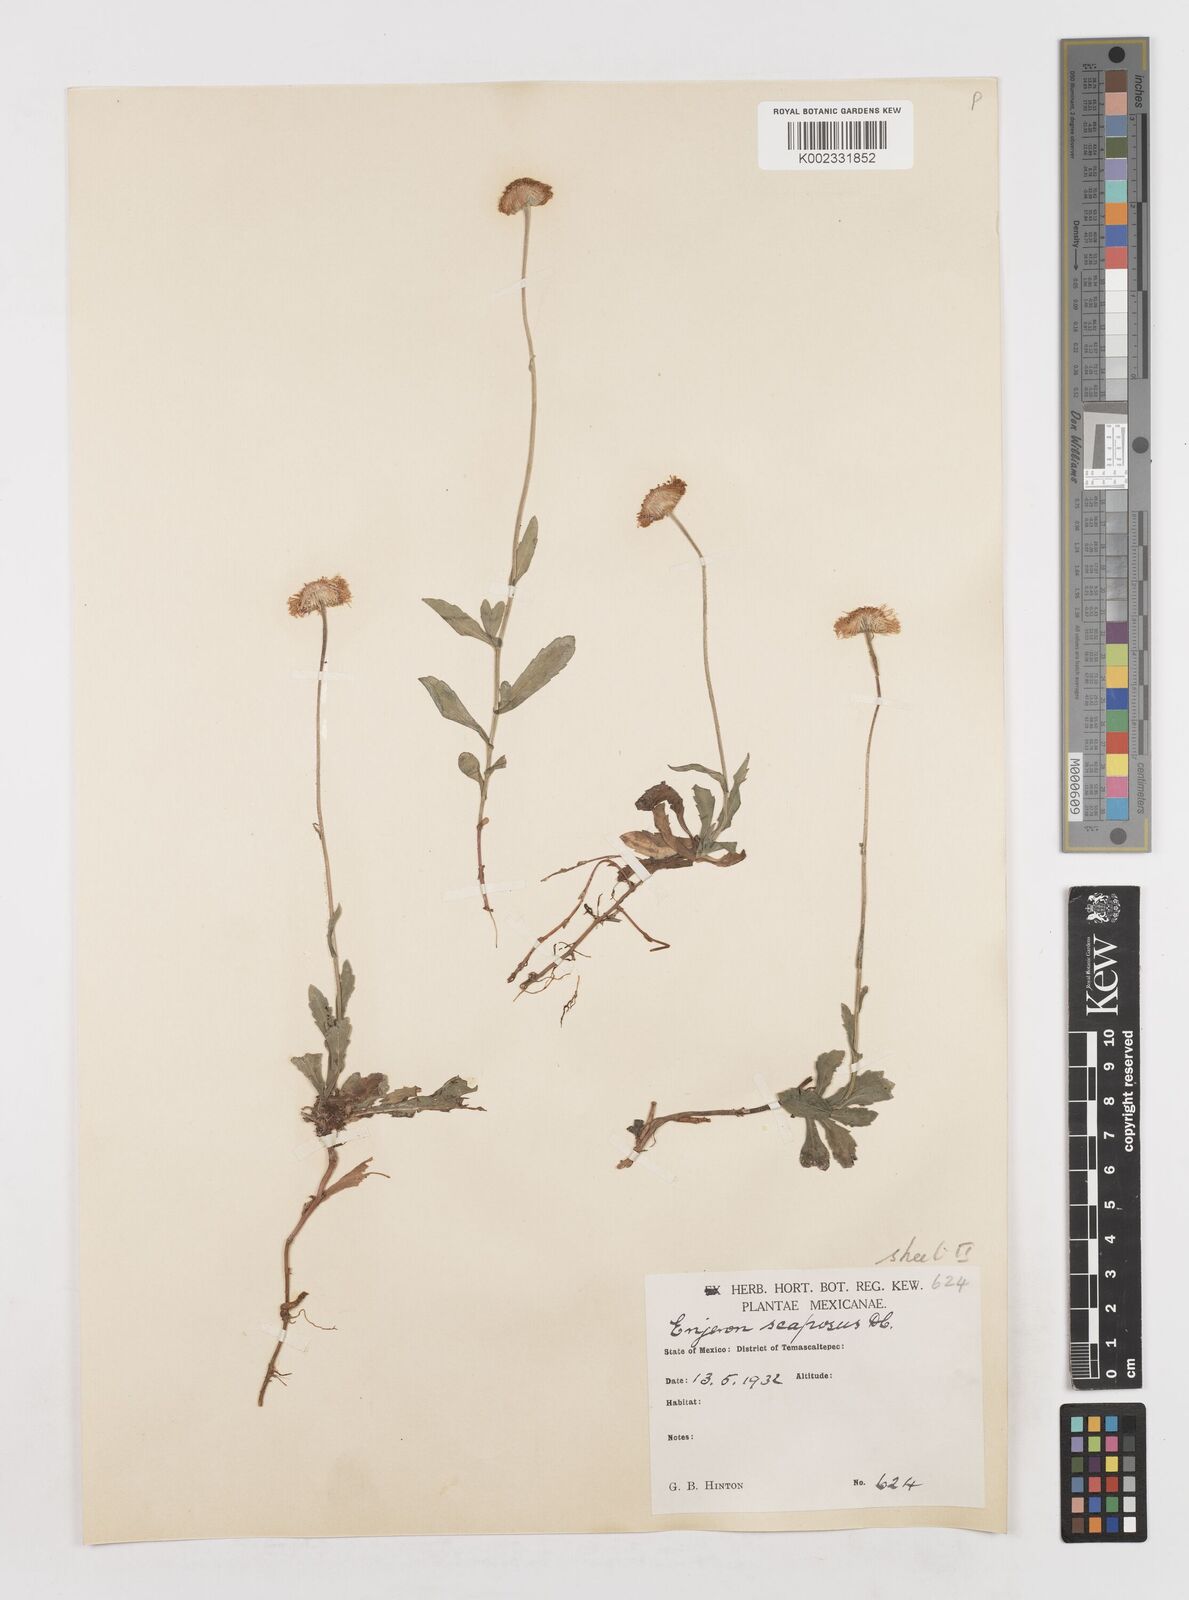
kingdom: Plantae
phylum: Tracheophyta
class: Magnoliopsida
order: Asterales
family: Asteraceae
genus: Erigeron
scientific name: Erigeron longipes
